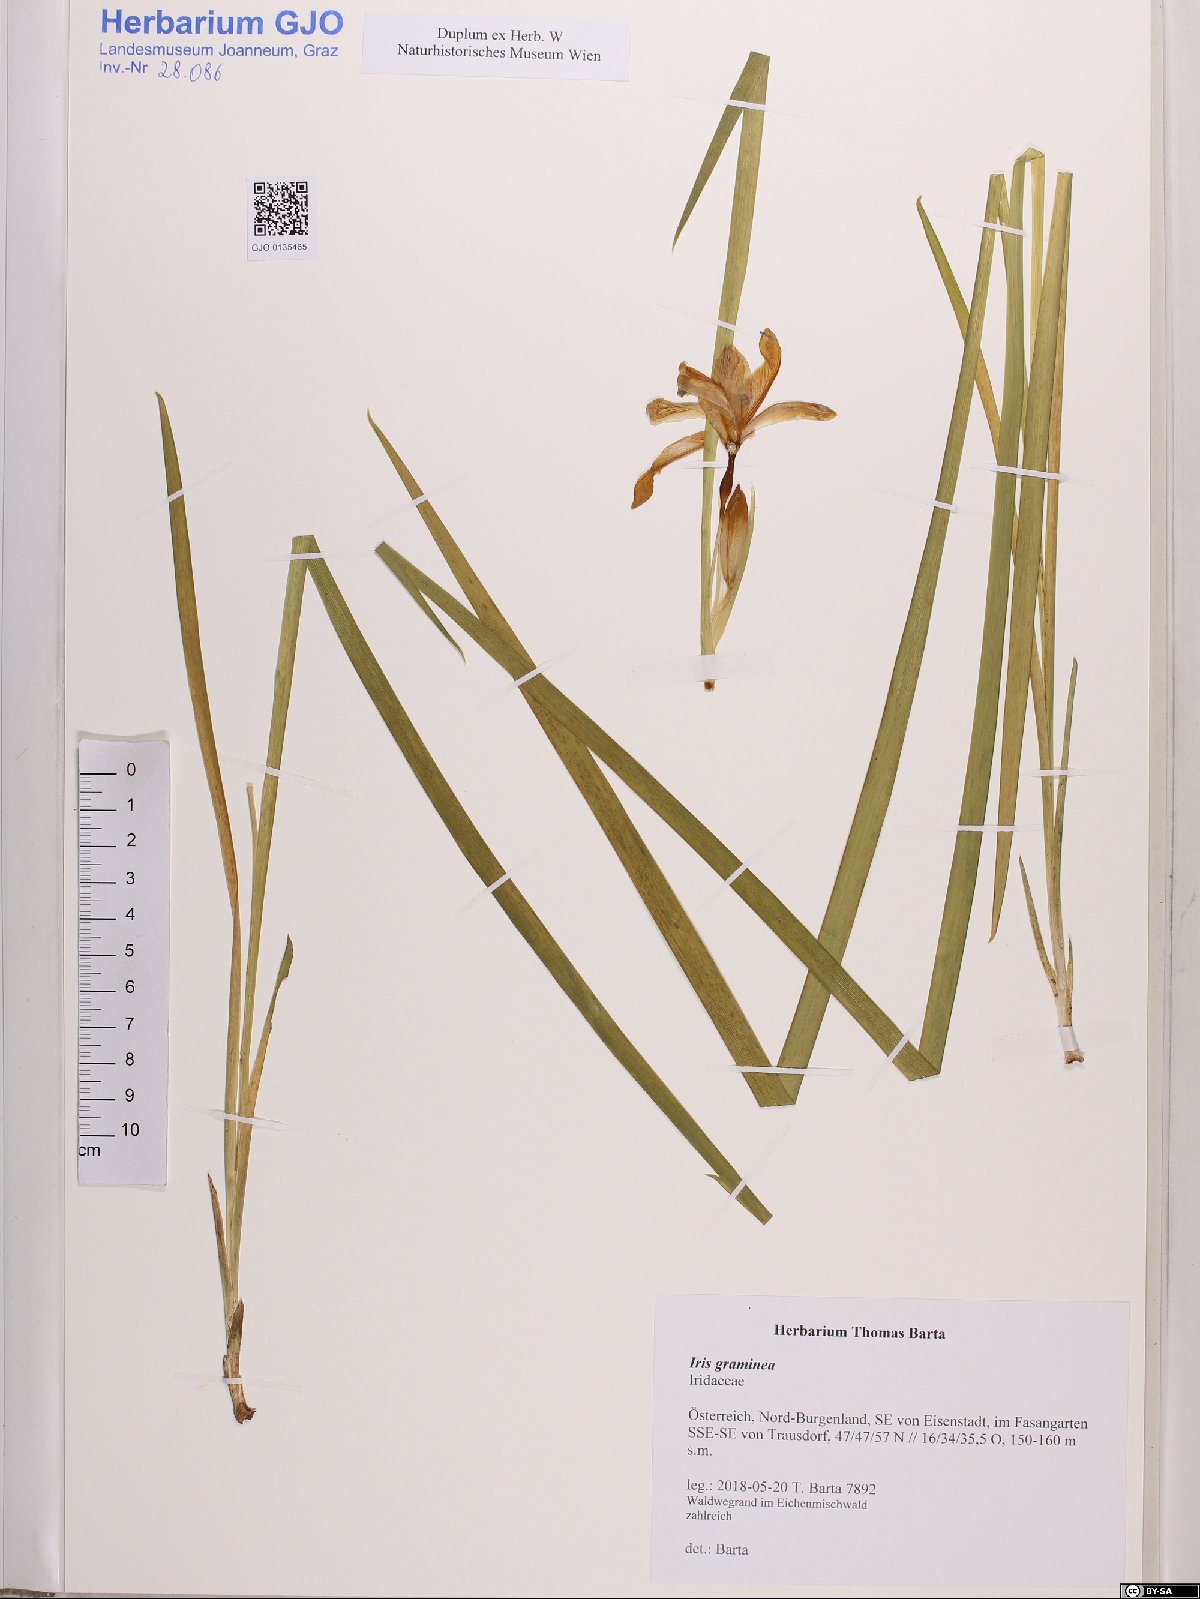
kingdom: Plantae
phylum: Tracheophyta
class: Liliopsida
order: Asparagales
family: Iridaceae
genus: Iris
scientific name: Iris graminea
